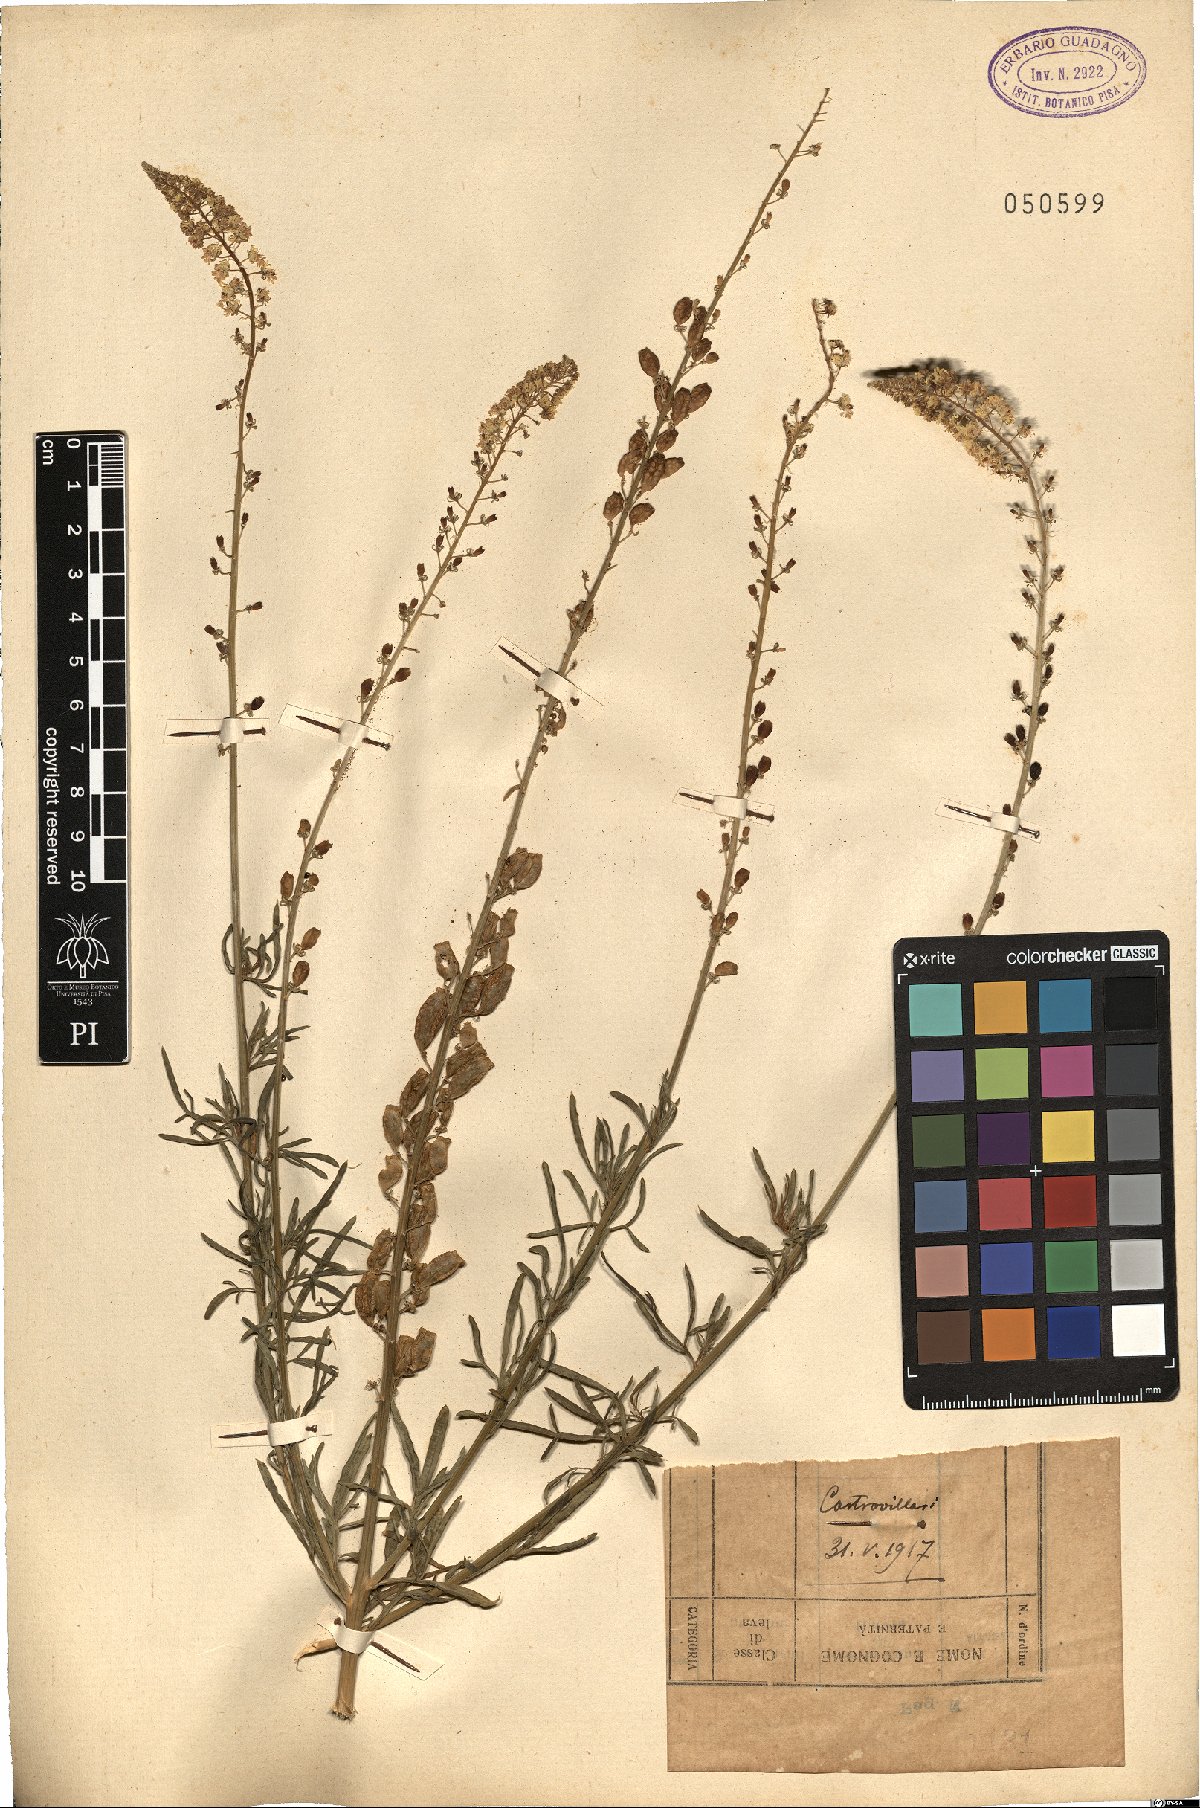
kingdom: Plantae
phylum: Tracheophyta
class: Magnoliopsida
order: Brassicales
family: Resedaceae
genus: Reseda
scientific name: Reseda
